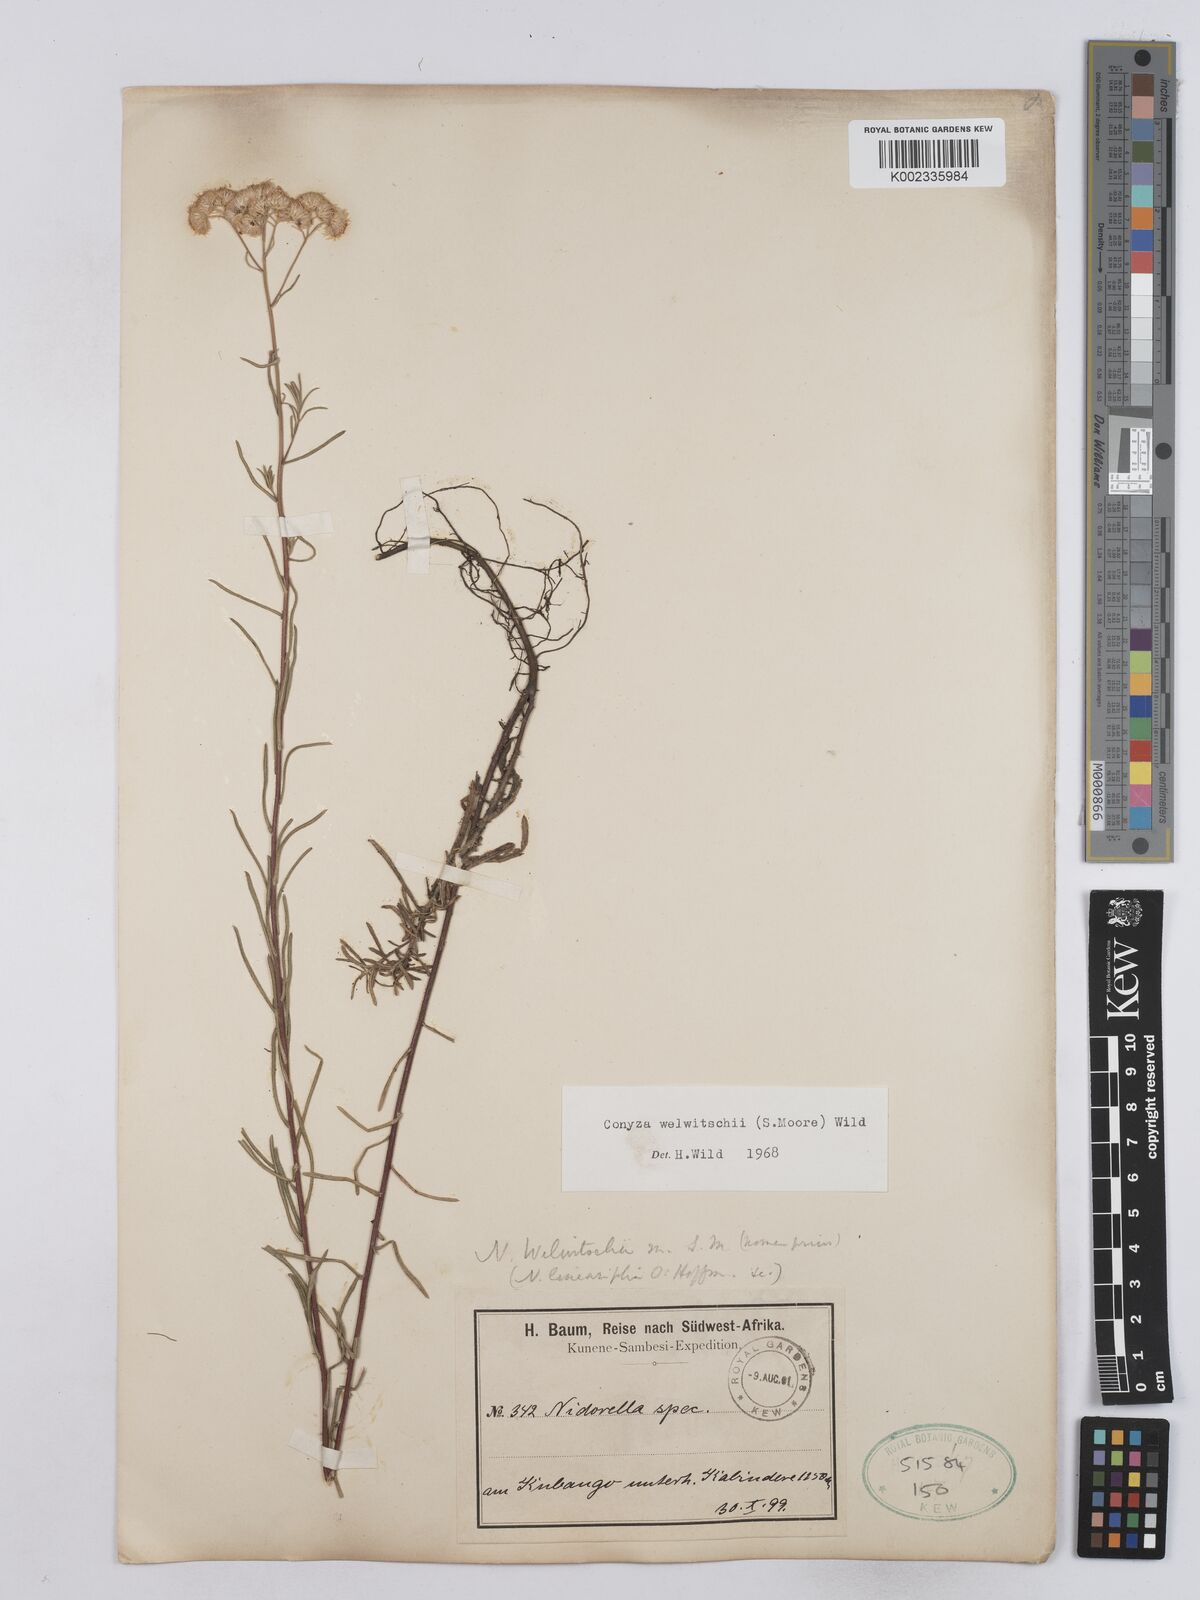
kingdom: Plantae
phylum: Tracheophyta
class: Magnoliopsida
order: Asterales
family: Asteraceae
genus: Nidorella
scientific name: Nidorella welwitschii
